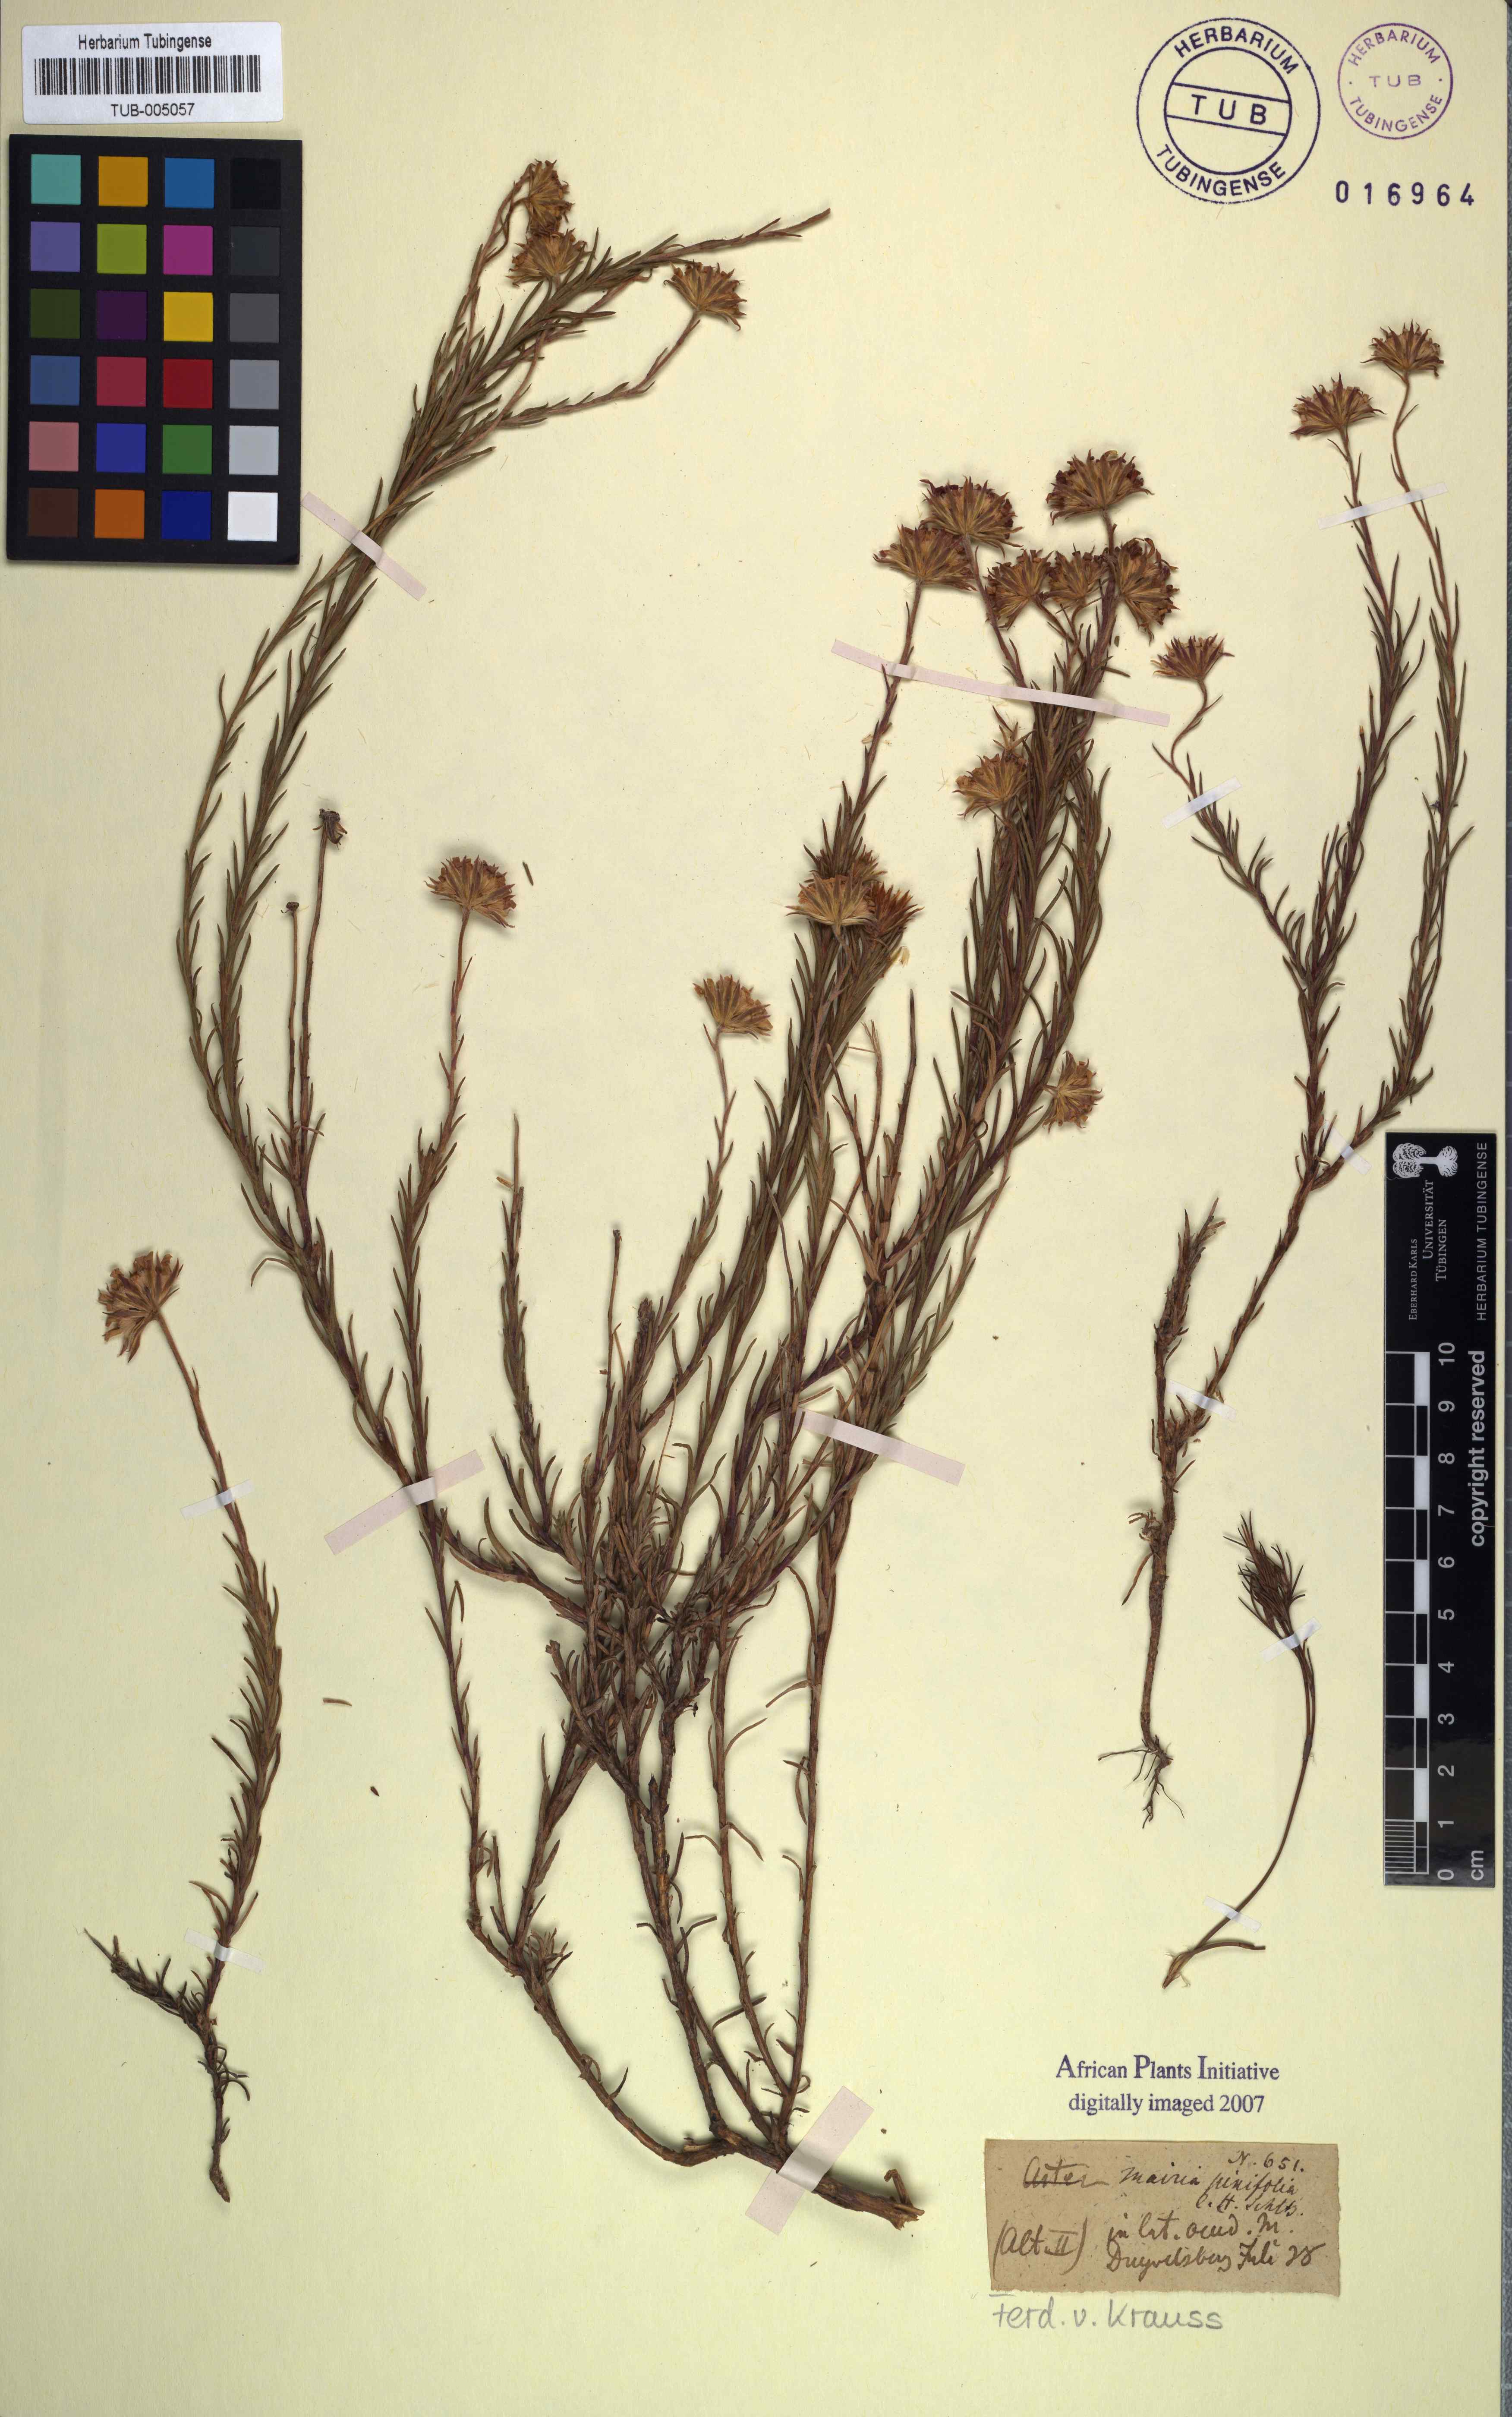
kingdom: Plantae
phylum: Tracheophyta
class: Magnoliopsida
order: Asterales
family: Asteraceae
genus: Zyrphelis
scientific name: Zyrphelis taxifolia
